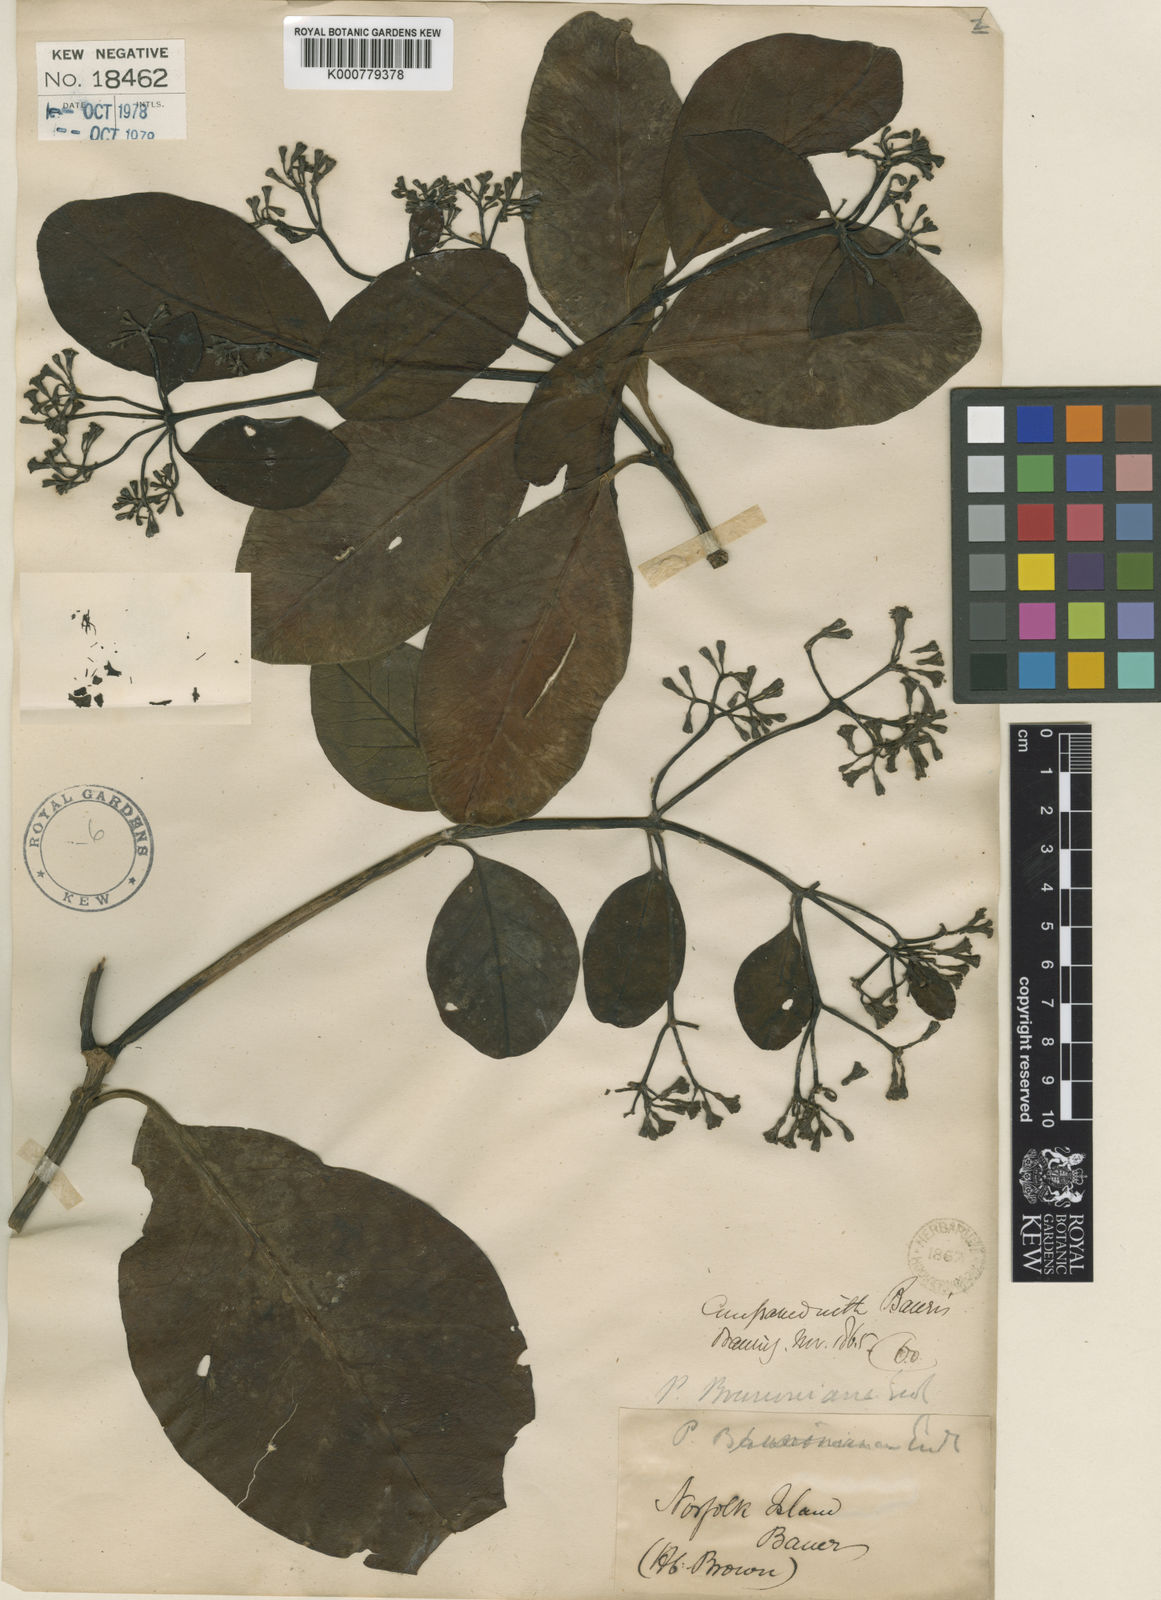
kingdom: Plantae
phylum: Tracheophyta
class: Magnoliopsida
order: Caryophyllales
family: Nyctaginaceae
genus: Ceodes
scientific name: Ceodes brunoniana
